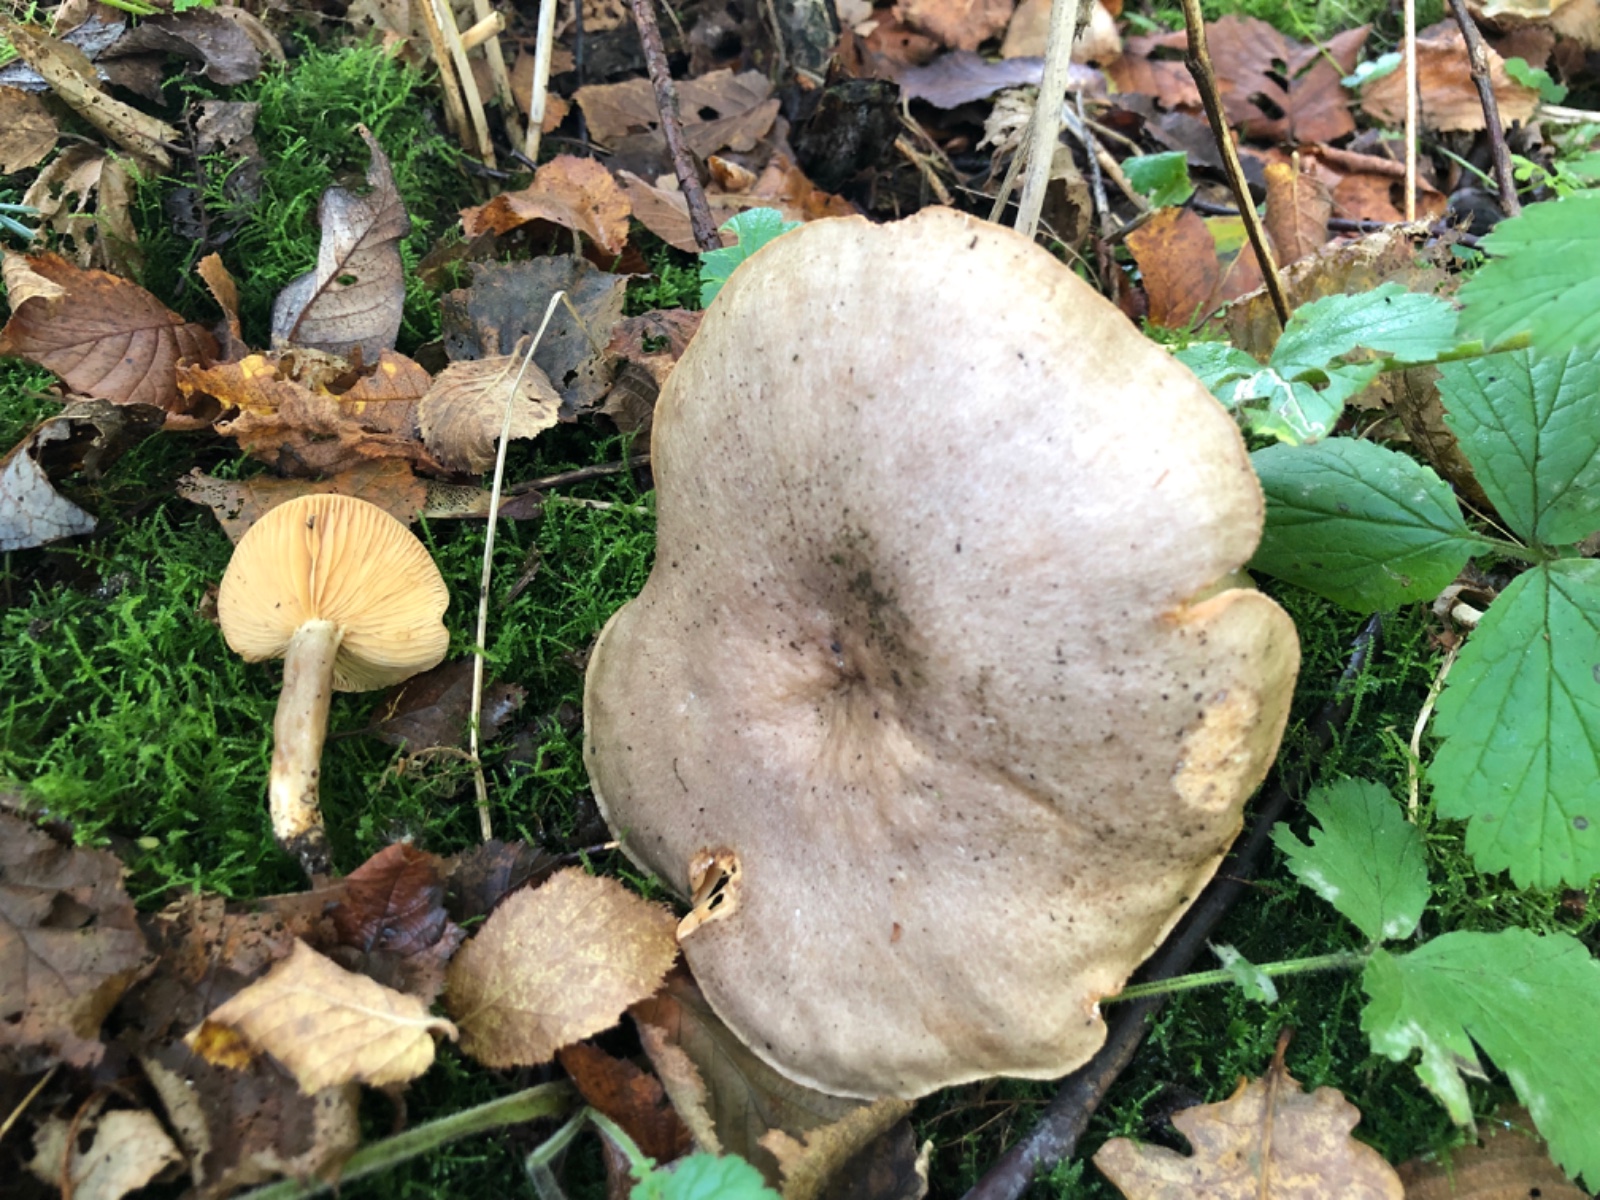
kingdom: Fungi
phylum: Basidiomycota
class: Agaricomycetes
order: Russulales
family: Russulaceae
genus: Lactarius
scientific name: Lactarius pyrogalus
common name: hassel-mælkehat
